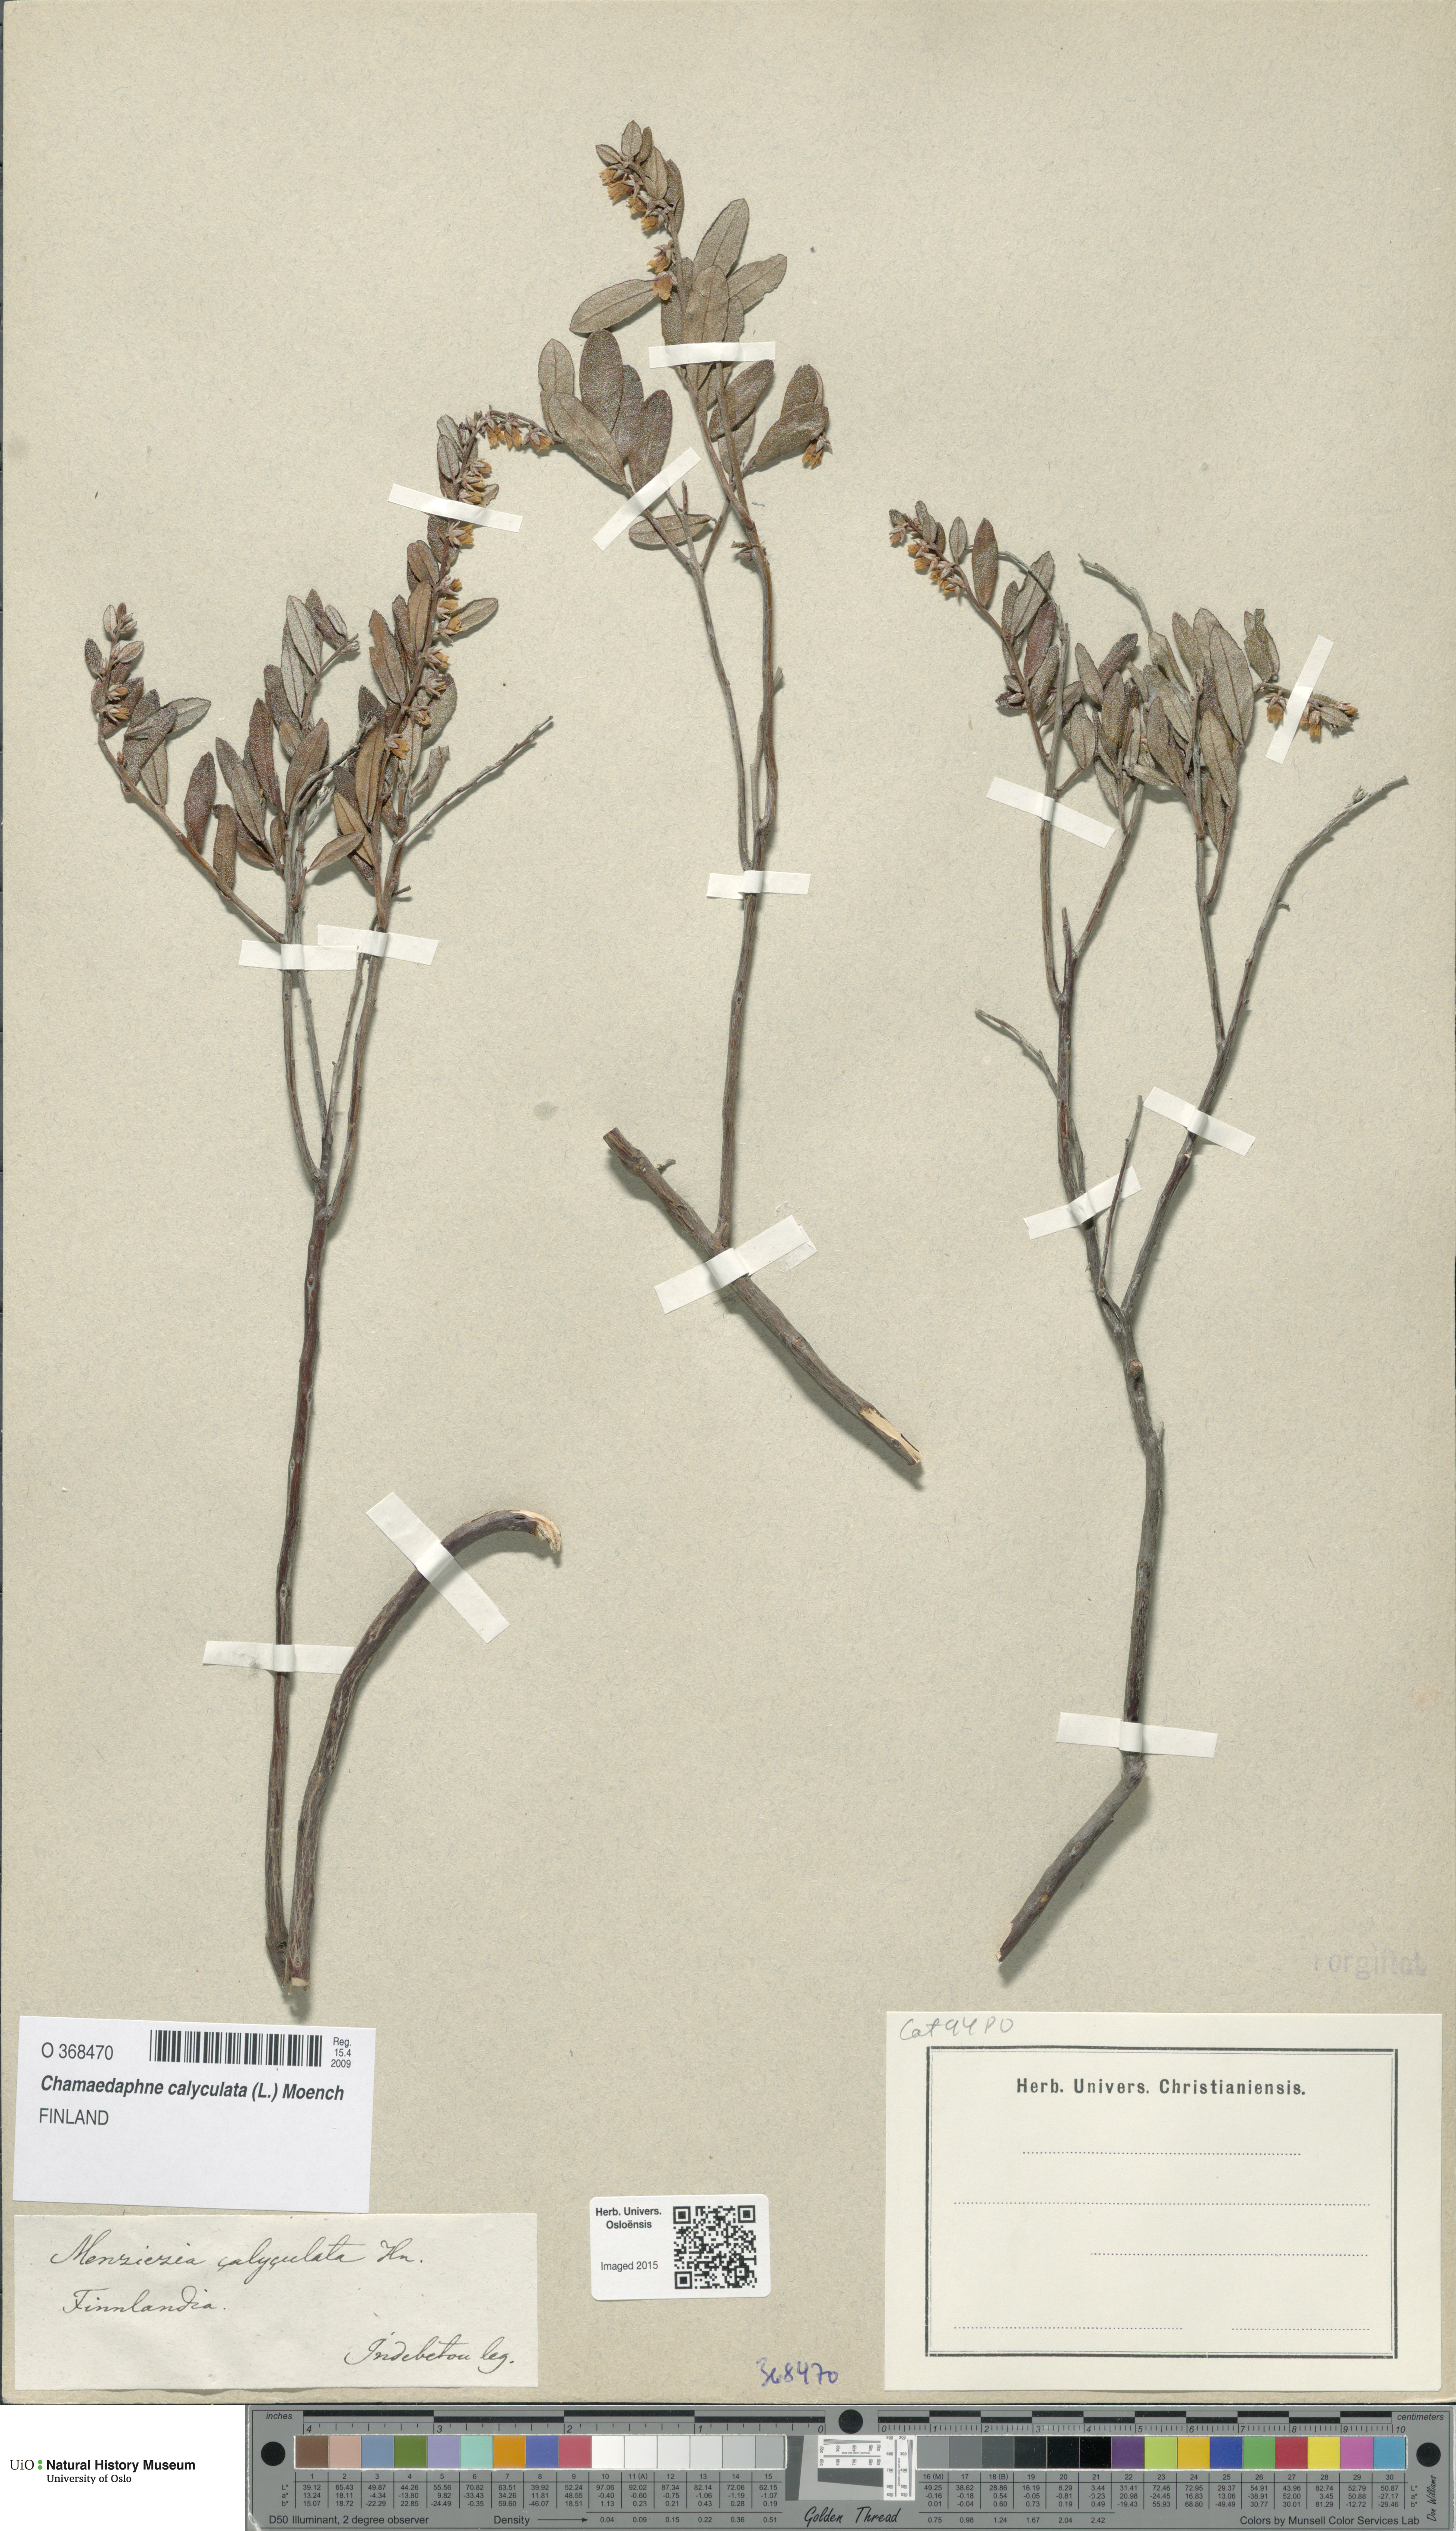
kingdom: Plantae
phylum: Tracheophyta
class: Magnoliopsida
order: Ericales
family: Ericaceae
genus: Chamaedaphne
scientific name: Chamaedaphne calyculata
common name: Leatherleaf
